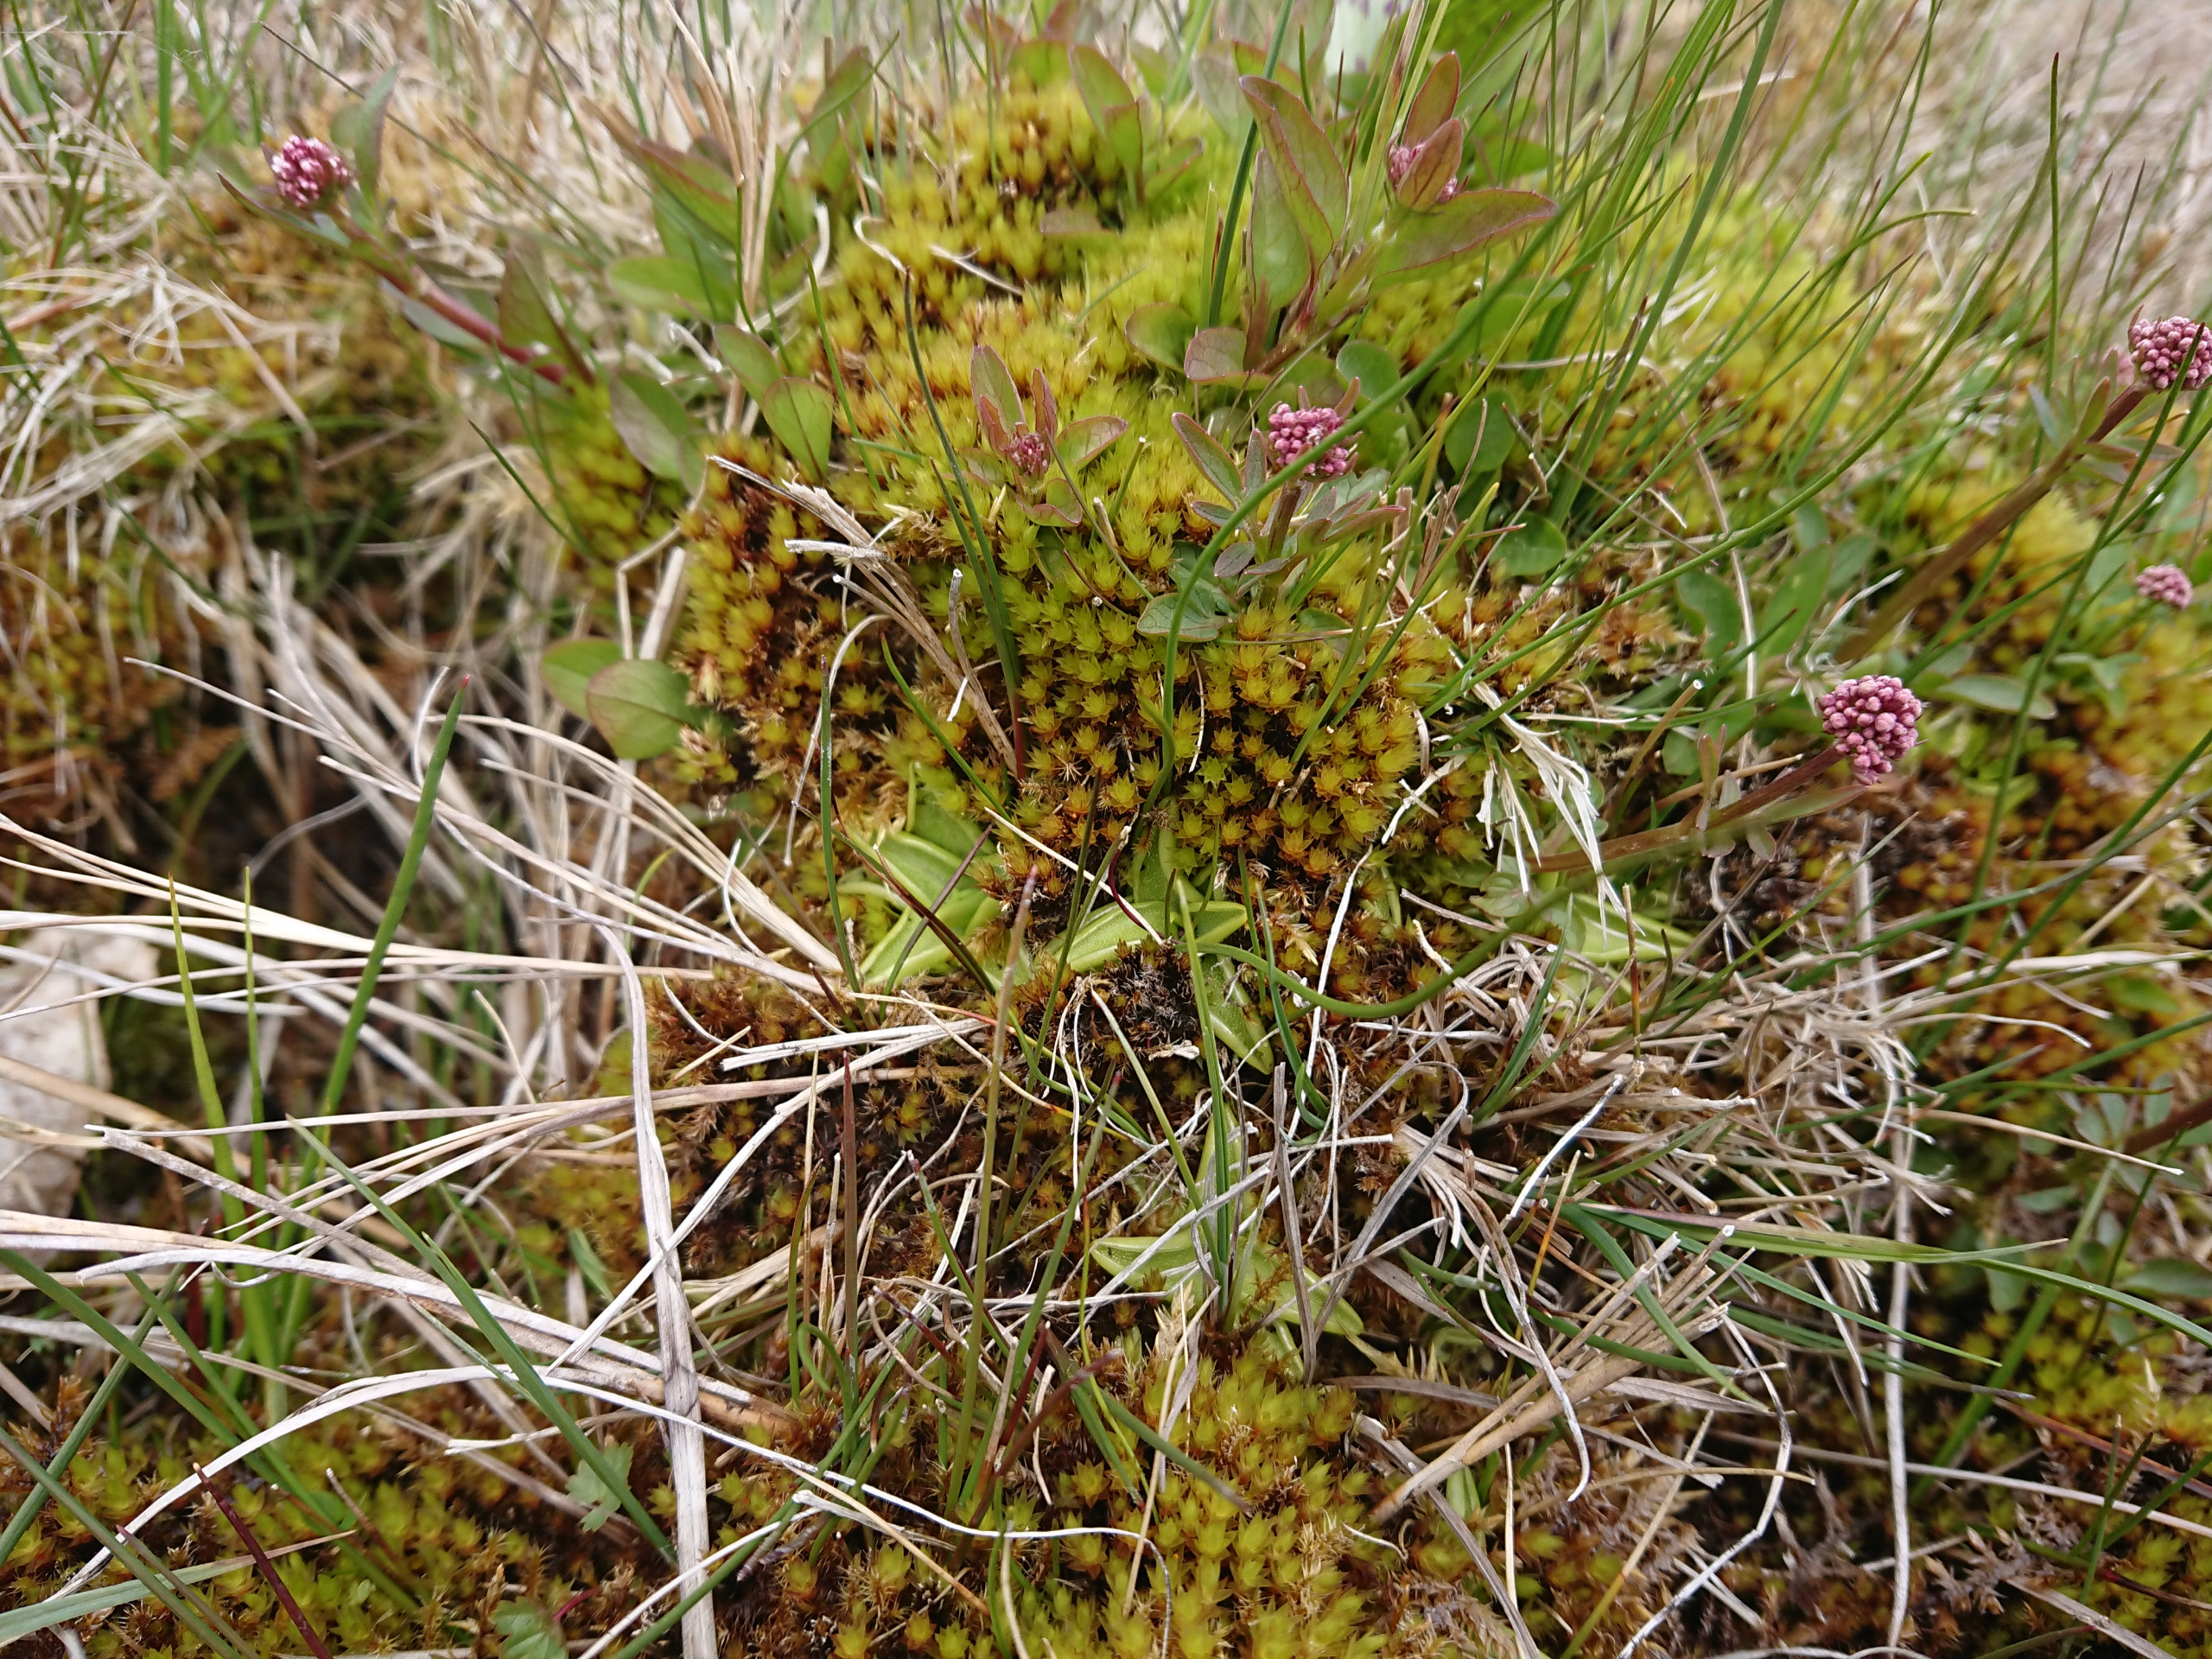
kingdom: Plantae
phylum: Tracheophyta
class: Magnoliopsida
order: Lamiales
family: Lentibulariaceae
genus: Pinguicula
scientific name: Pinguicula vulgaris
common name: Vibefedt
